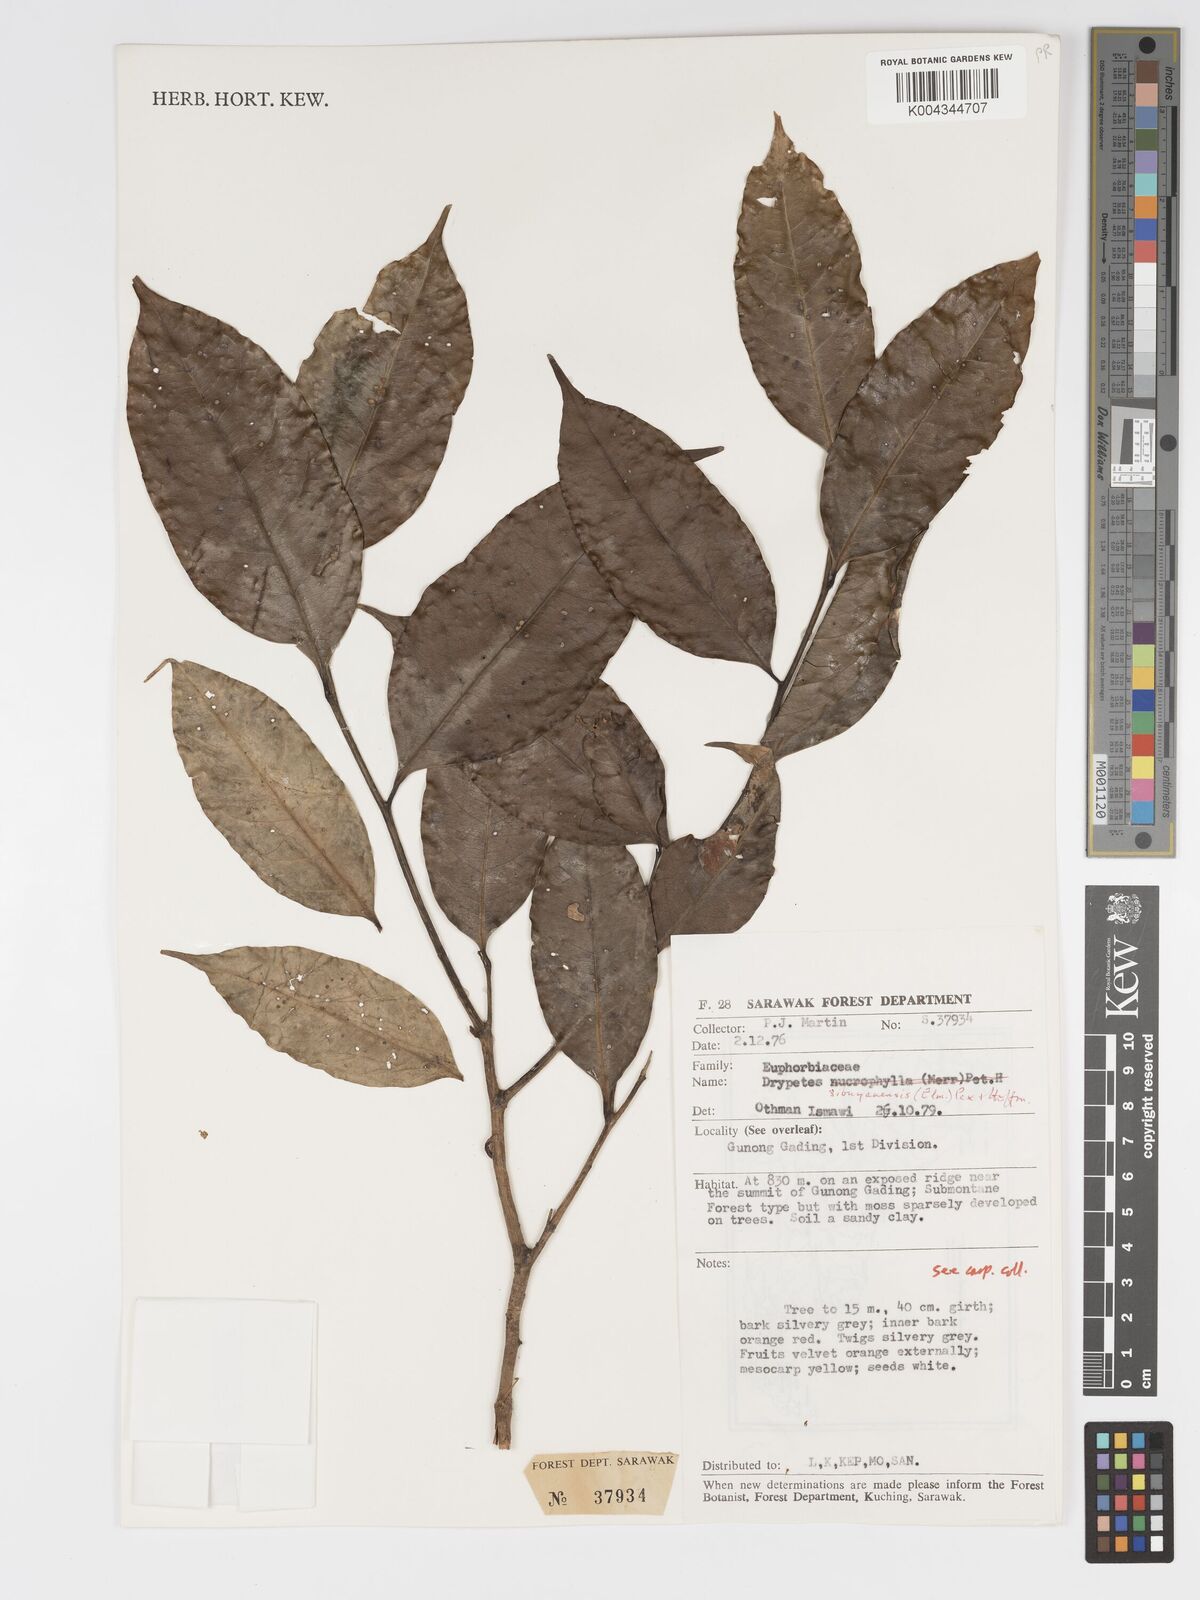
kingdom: Plantae
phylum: Tracheophyta
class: Magnoliopsida
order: Malpighiales
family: Putranjivaceae
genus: Drypetes
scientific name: Drypetes sibuyanensis
